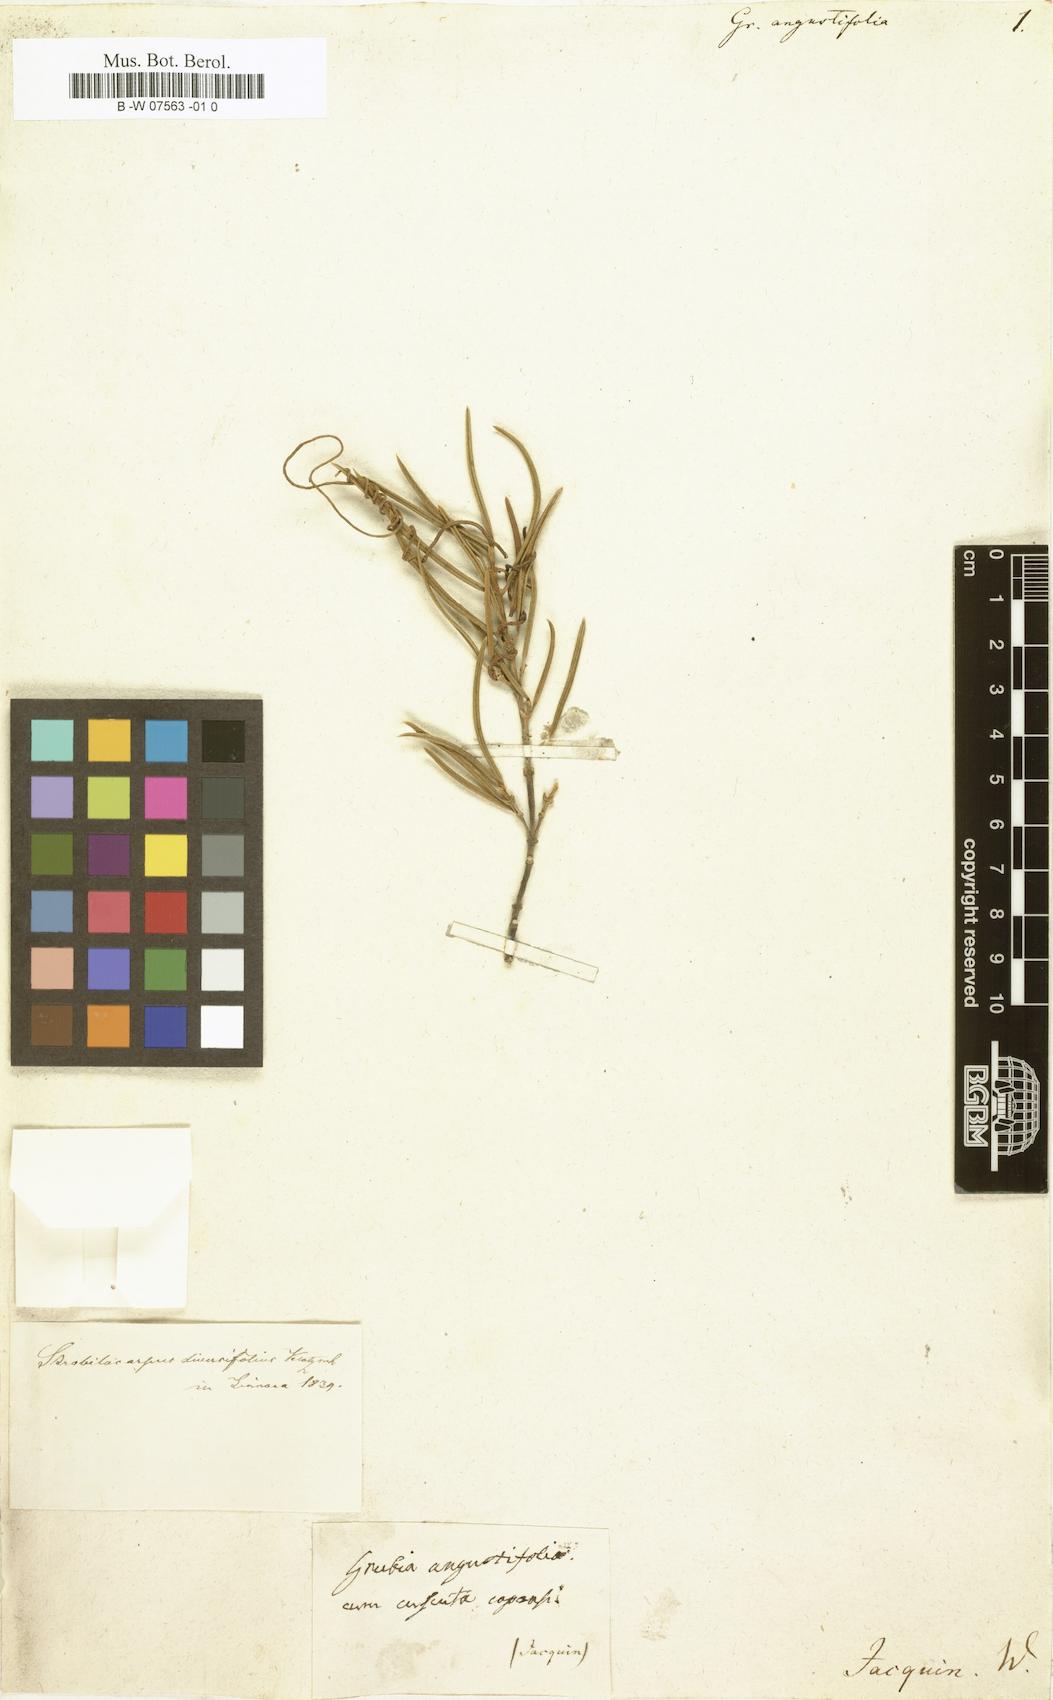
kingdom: Plantae
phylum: Tracheophyta
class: Magnoliopsida
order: Cornales
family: Grubbiaceae
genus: Grubbia
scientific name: Grubbia
